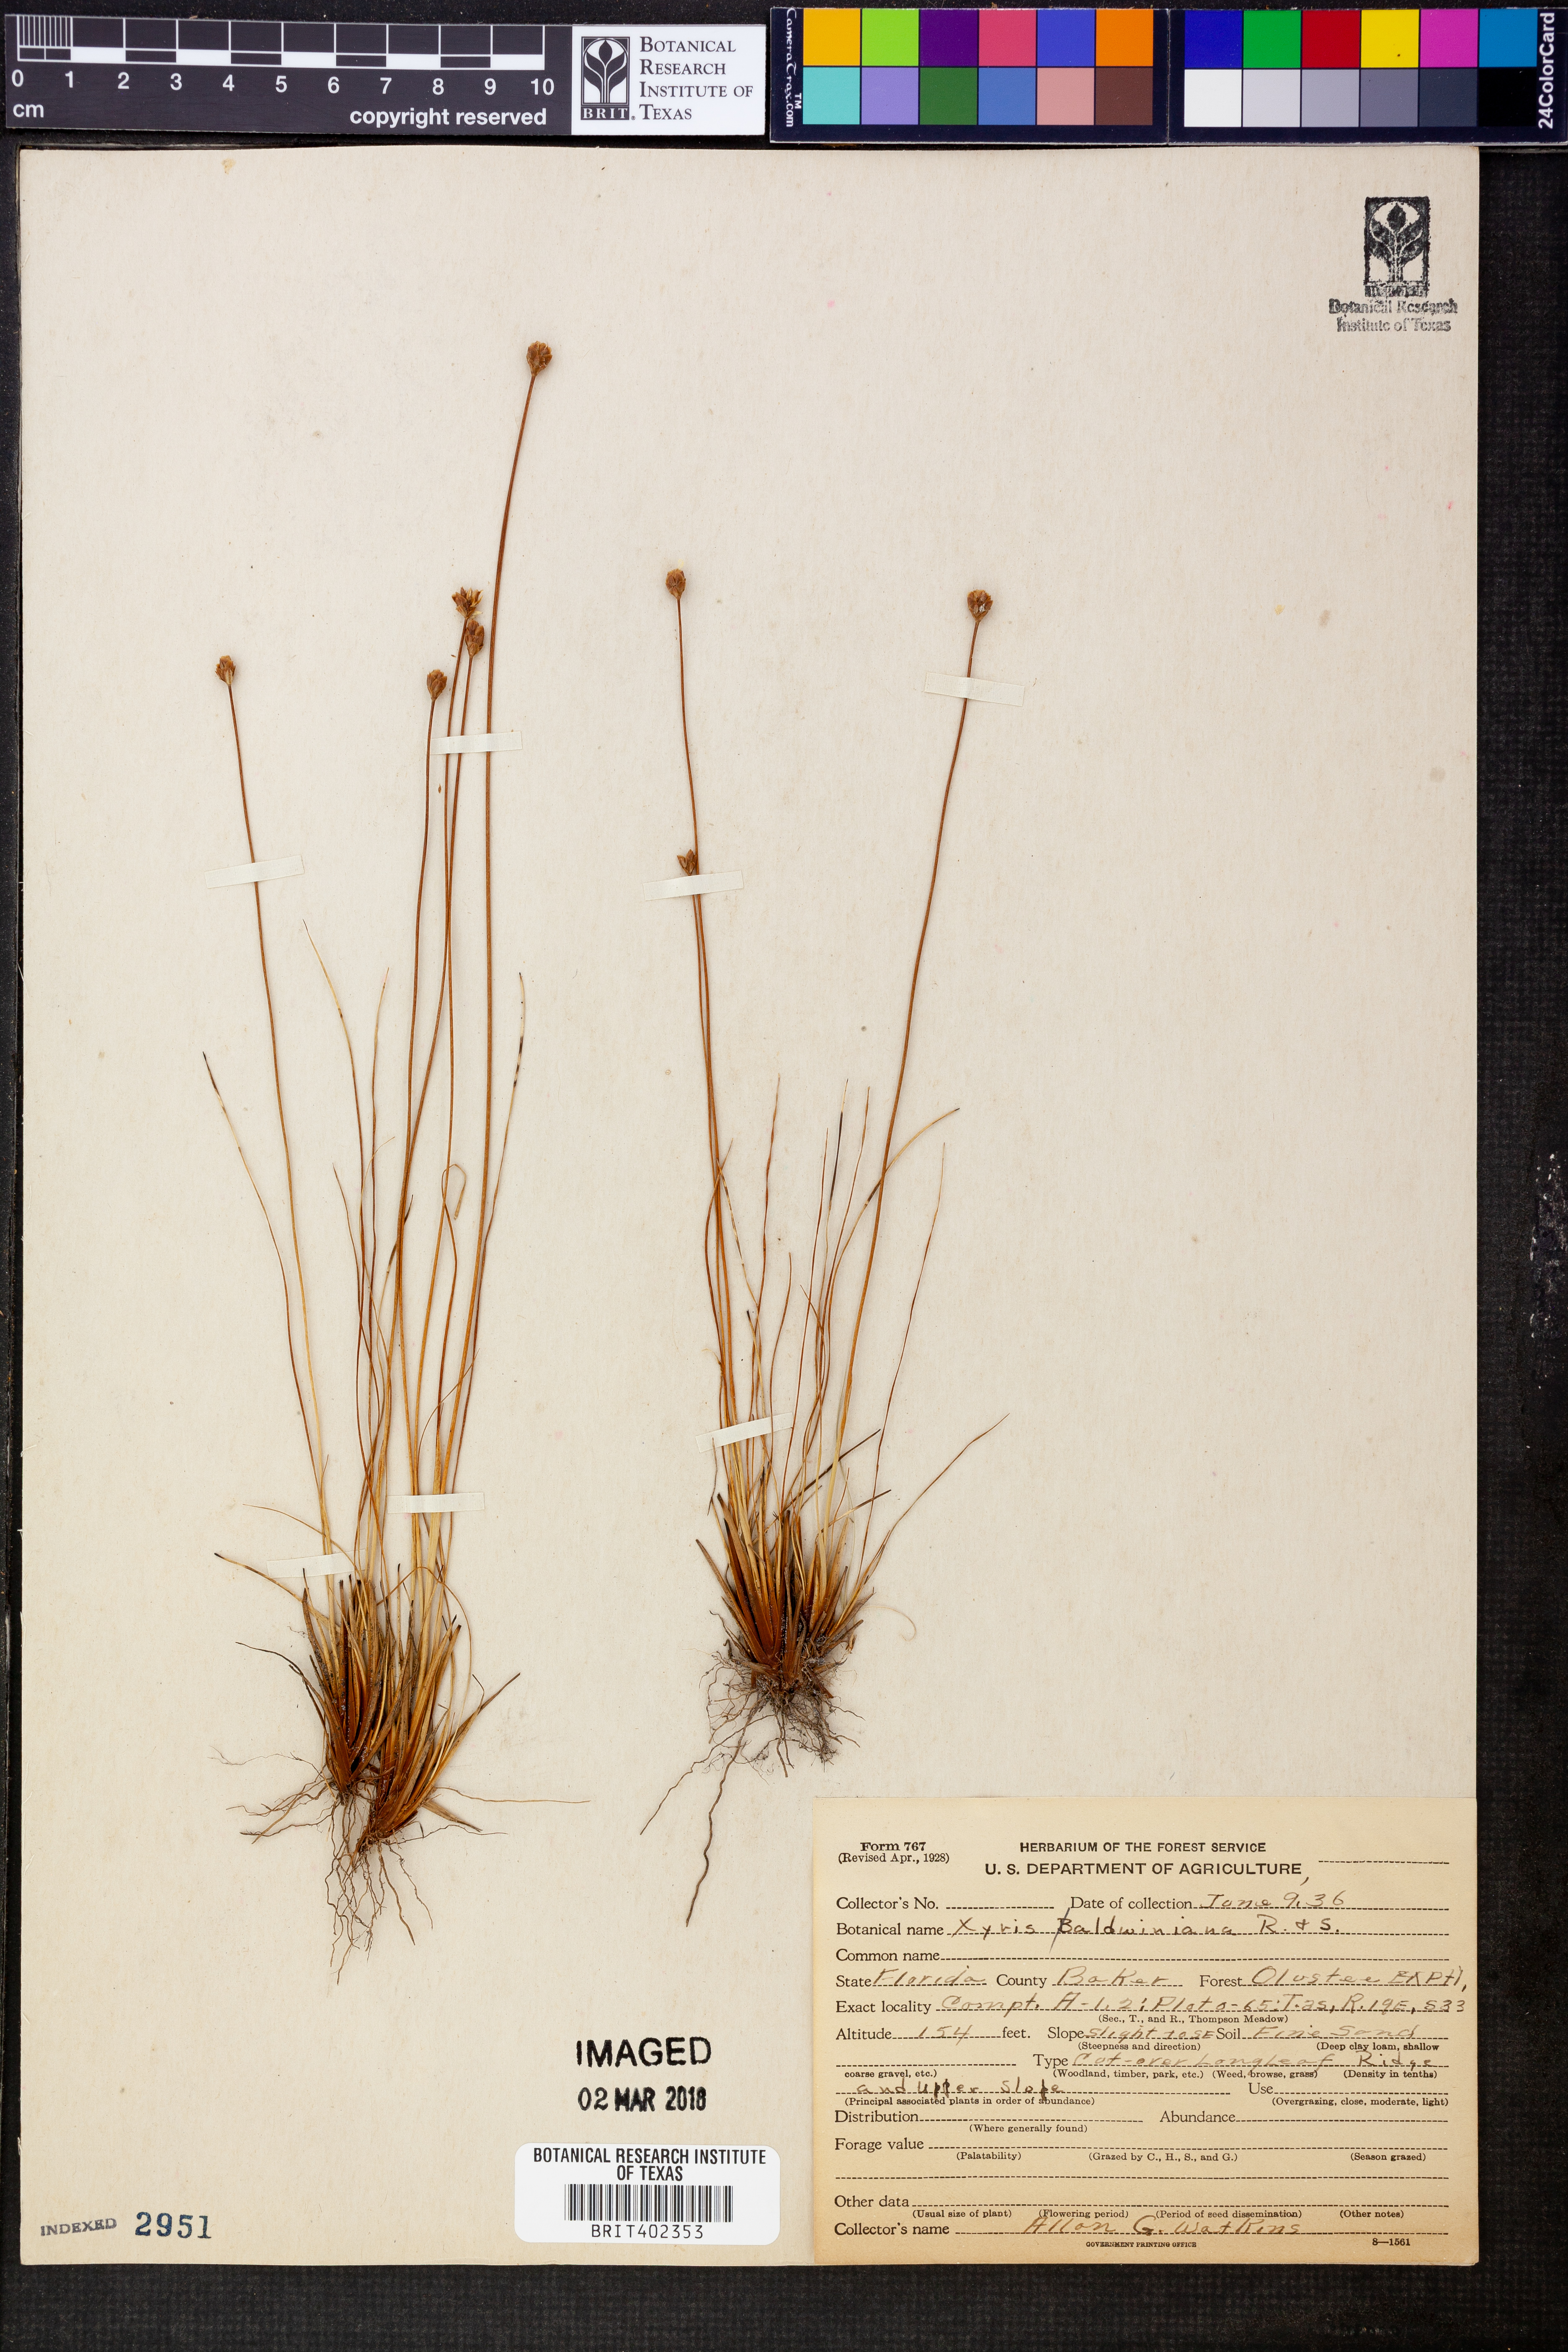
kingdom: Plantae
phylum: Tracheophyta
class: Liliopsida
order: Poales
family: Xyridaceae
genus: Xyris
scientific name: Xyris baldwiniana
